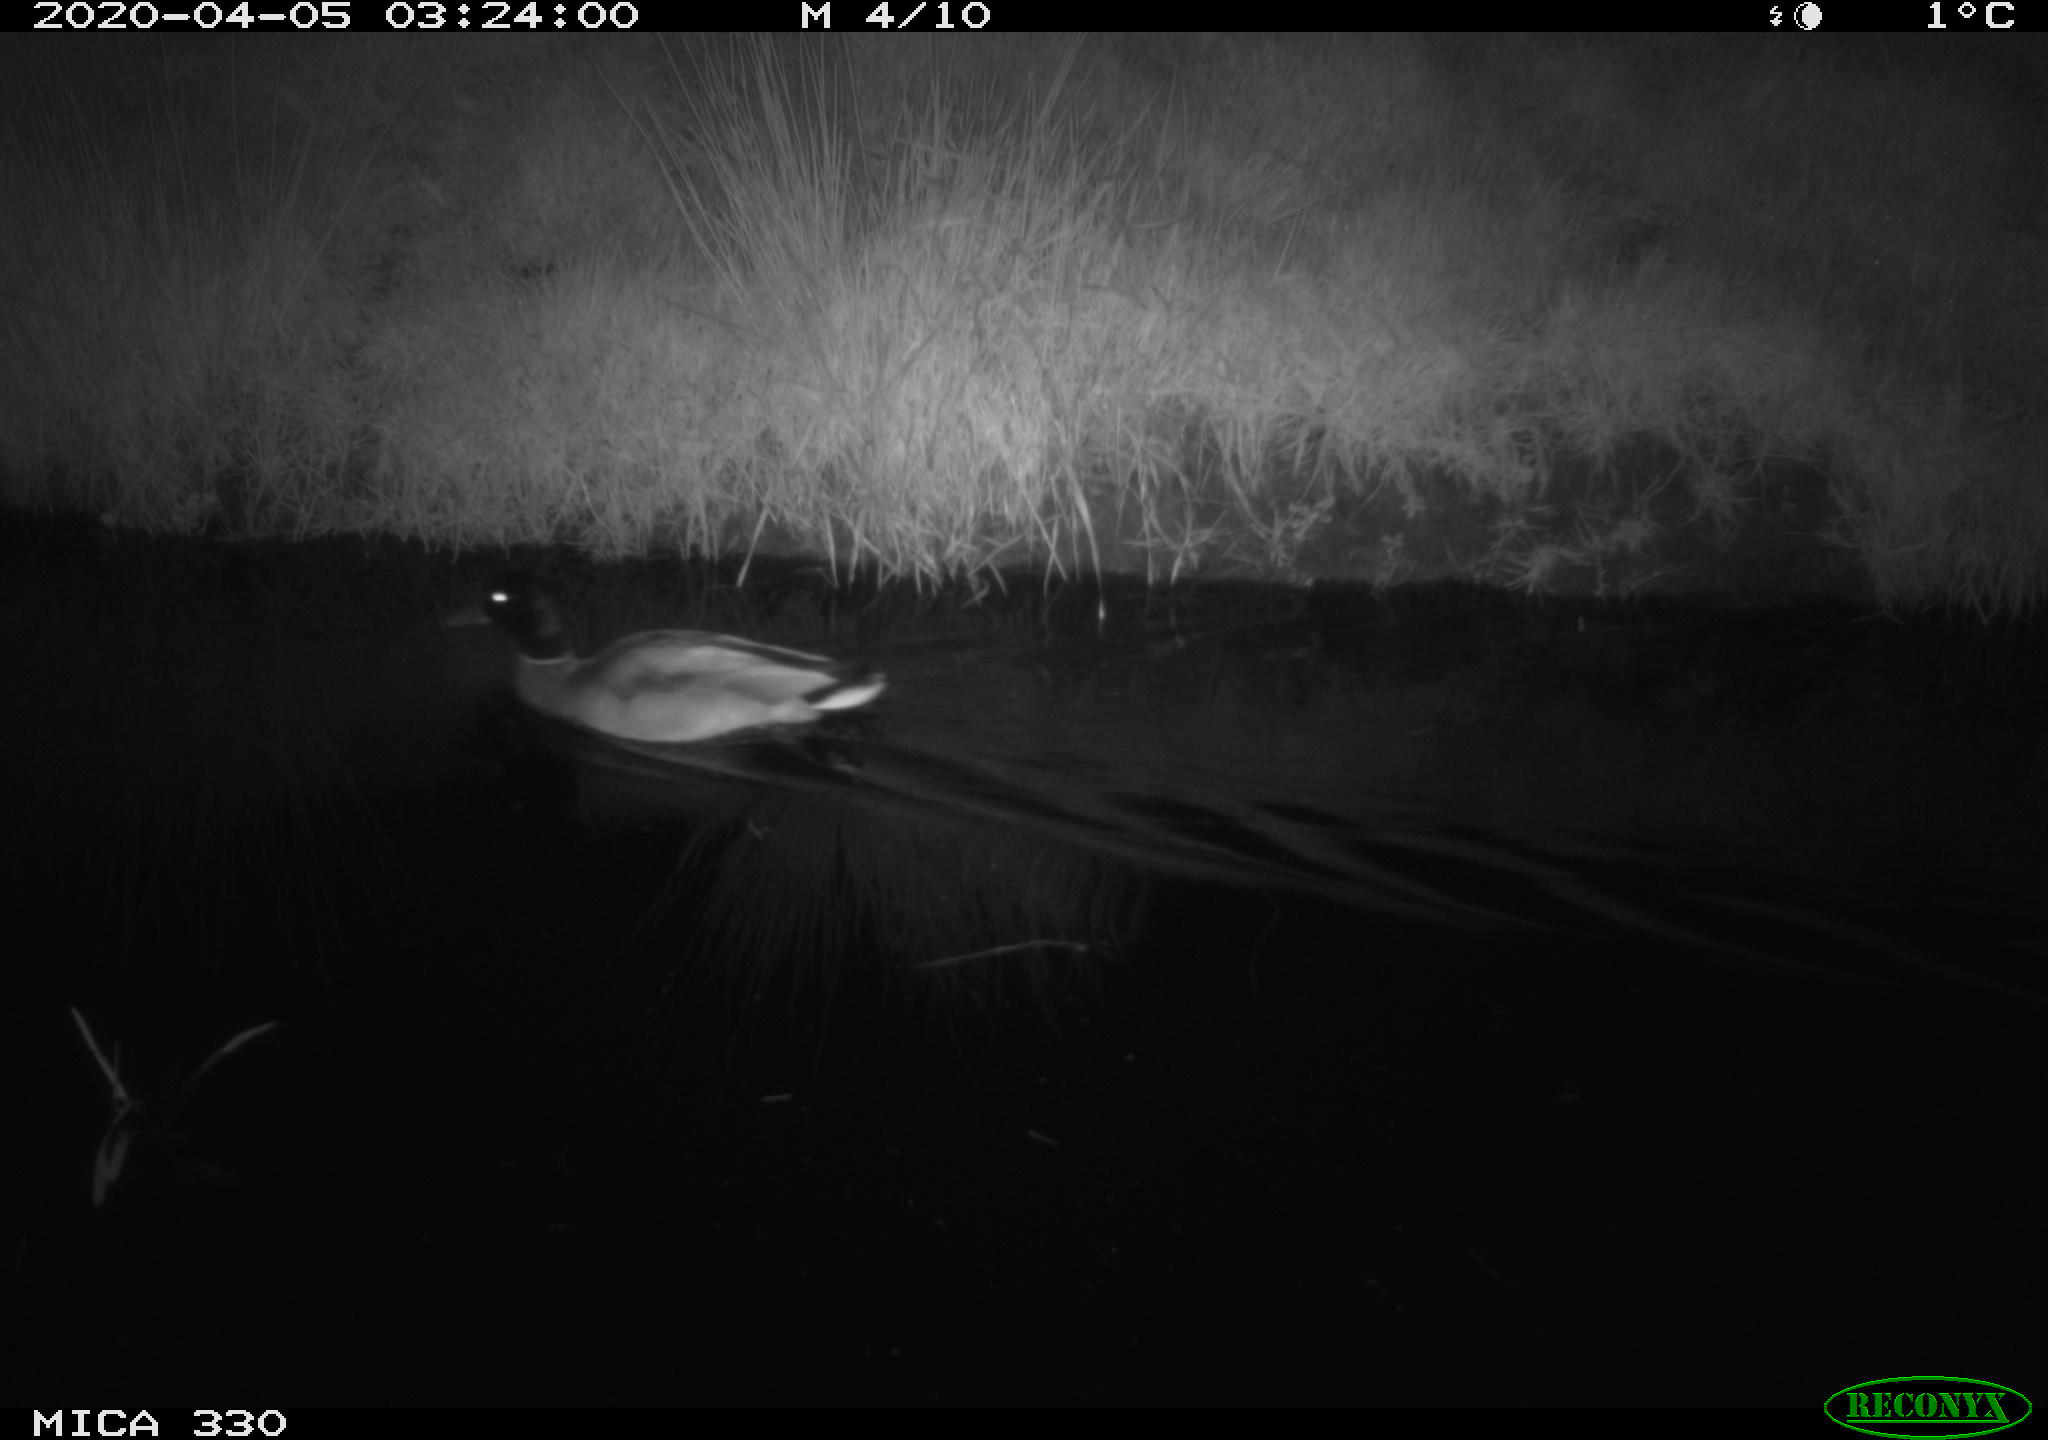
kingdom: Animalia
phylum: Chordata
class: Aves
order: Anseriformes
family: Anatidae
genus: Anas
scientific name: Anas platyrhynchos
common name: Mallard
